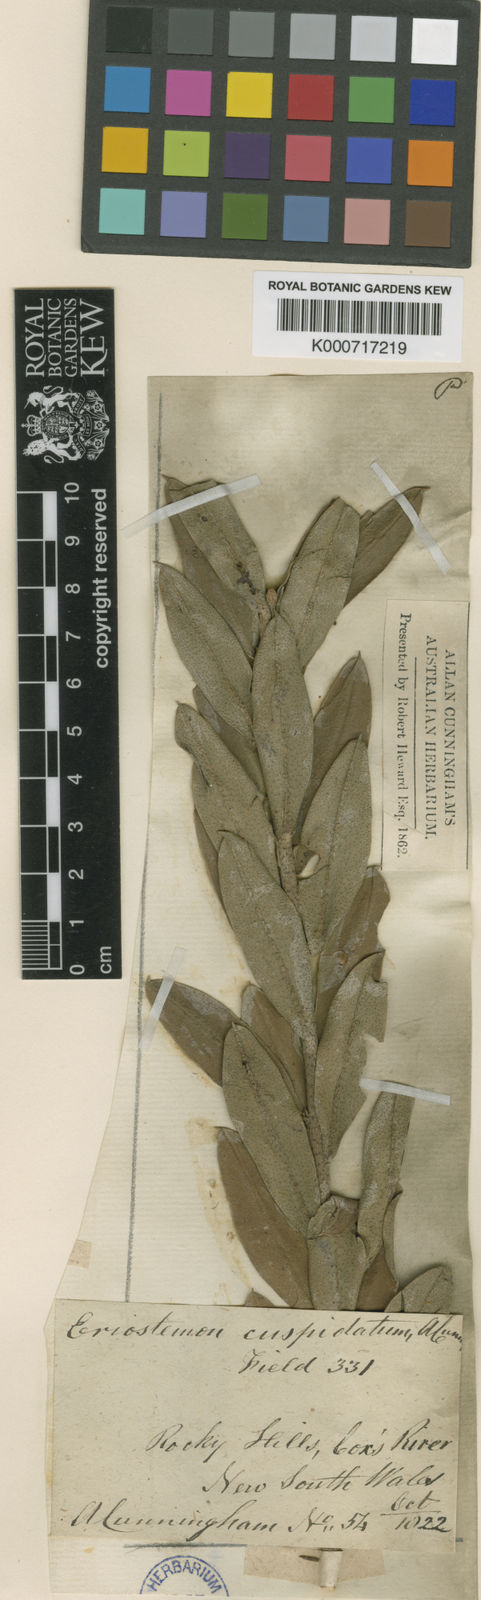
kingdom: Plantae
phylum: Tracheophyta
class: Magnoliopsida
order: Sapindales
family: Rutaceae
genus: Philotheca
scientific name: Philotheca myoporoides
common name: Longleaf waxflower
